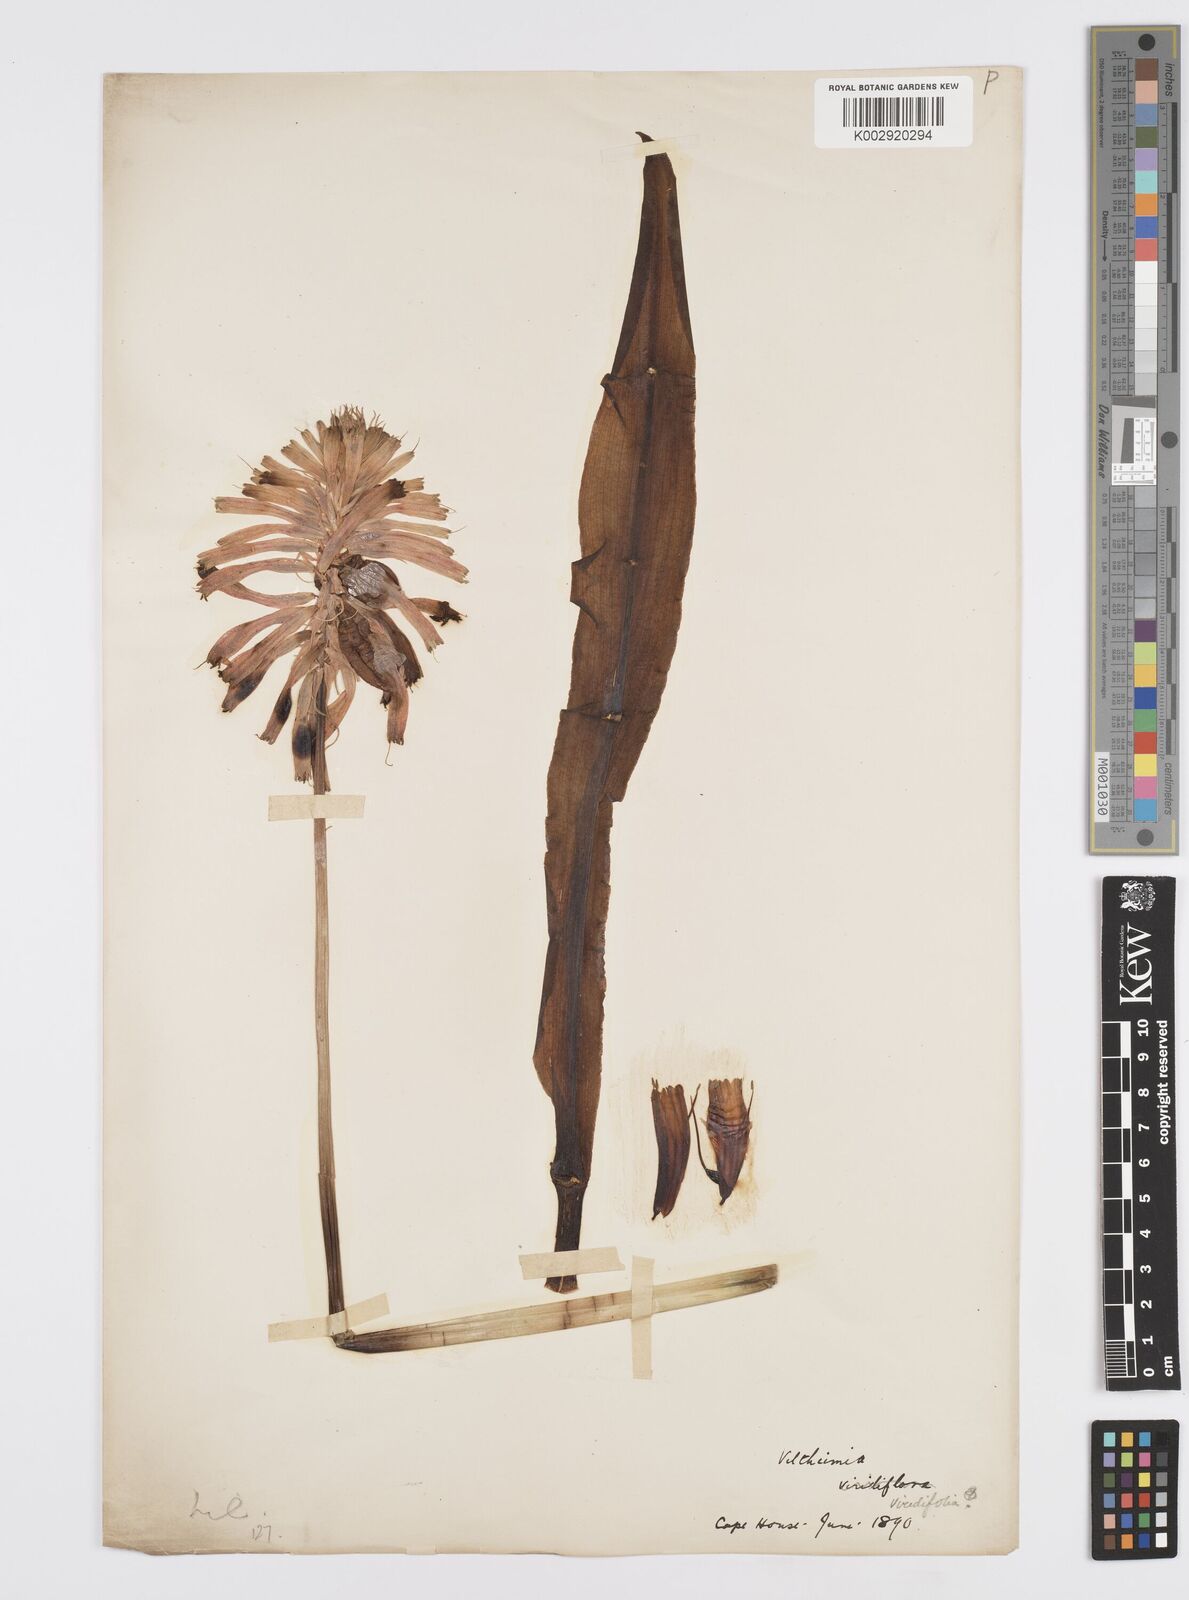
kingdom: Plantae
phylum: Tracheophyta
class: Liliopsida
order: Asparagales
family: Asparagaceae
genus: Veltheimia
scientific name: Veltheimia bracteata
